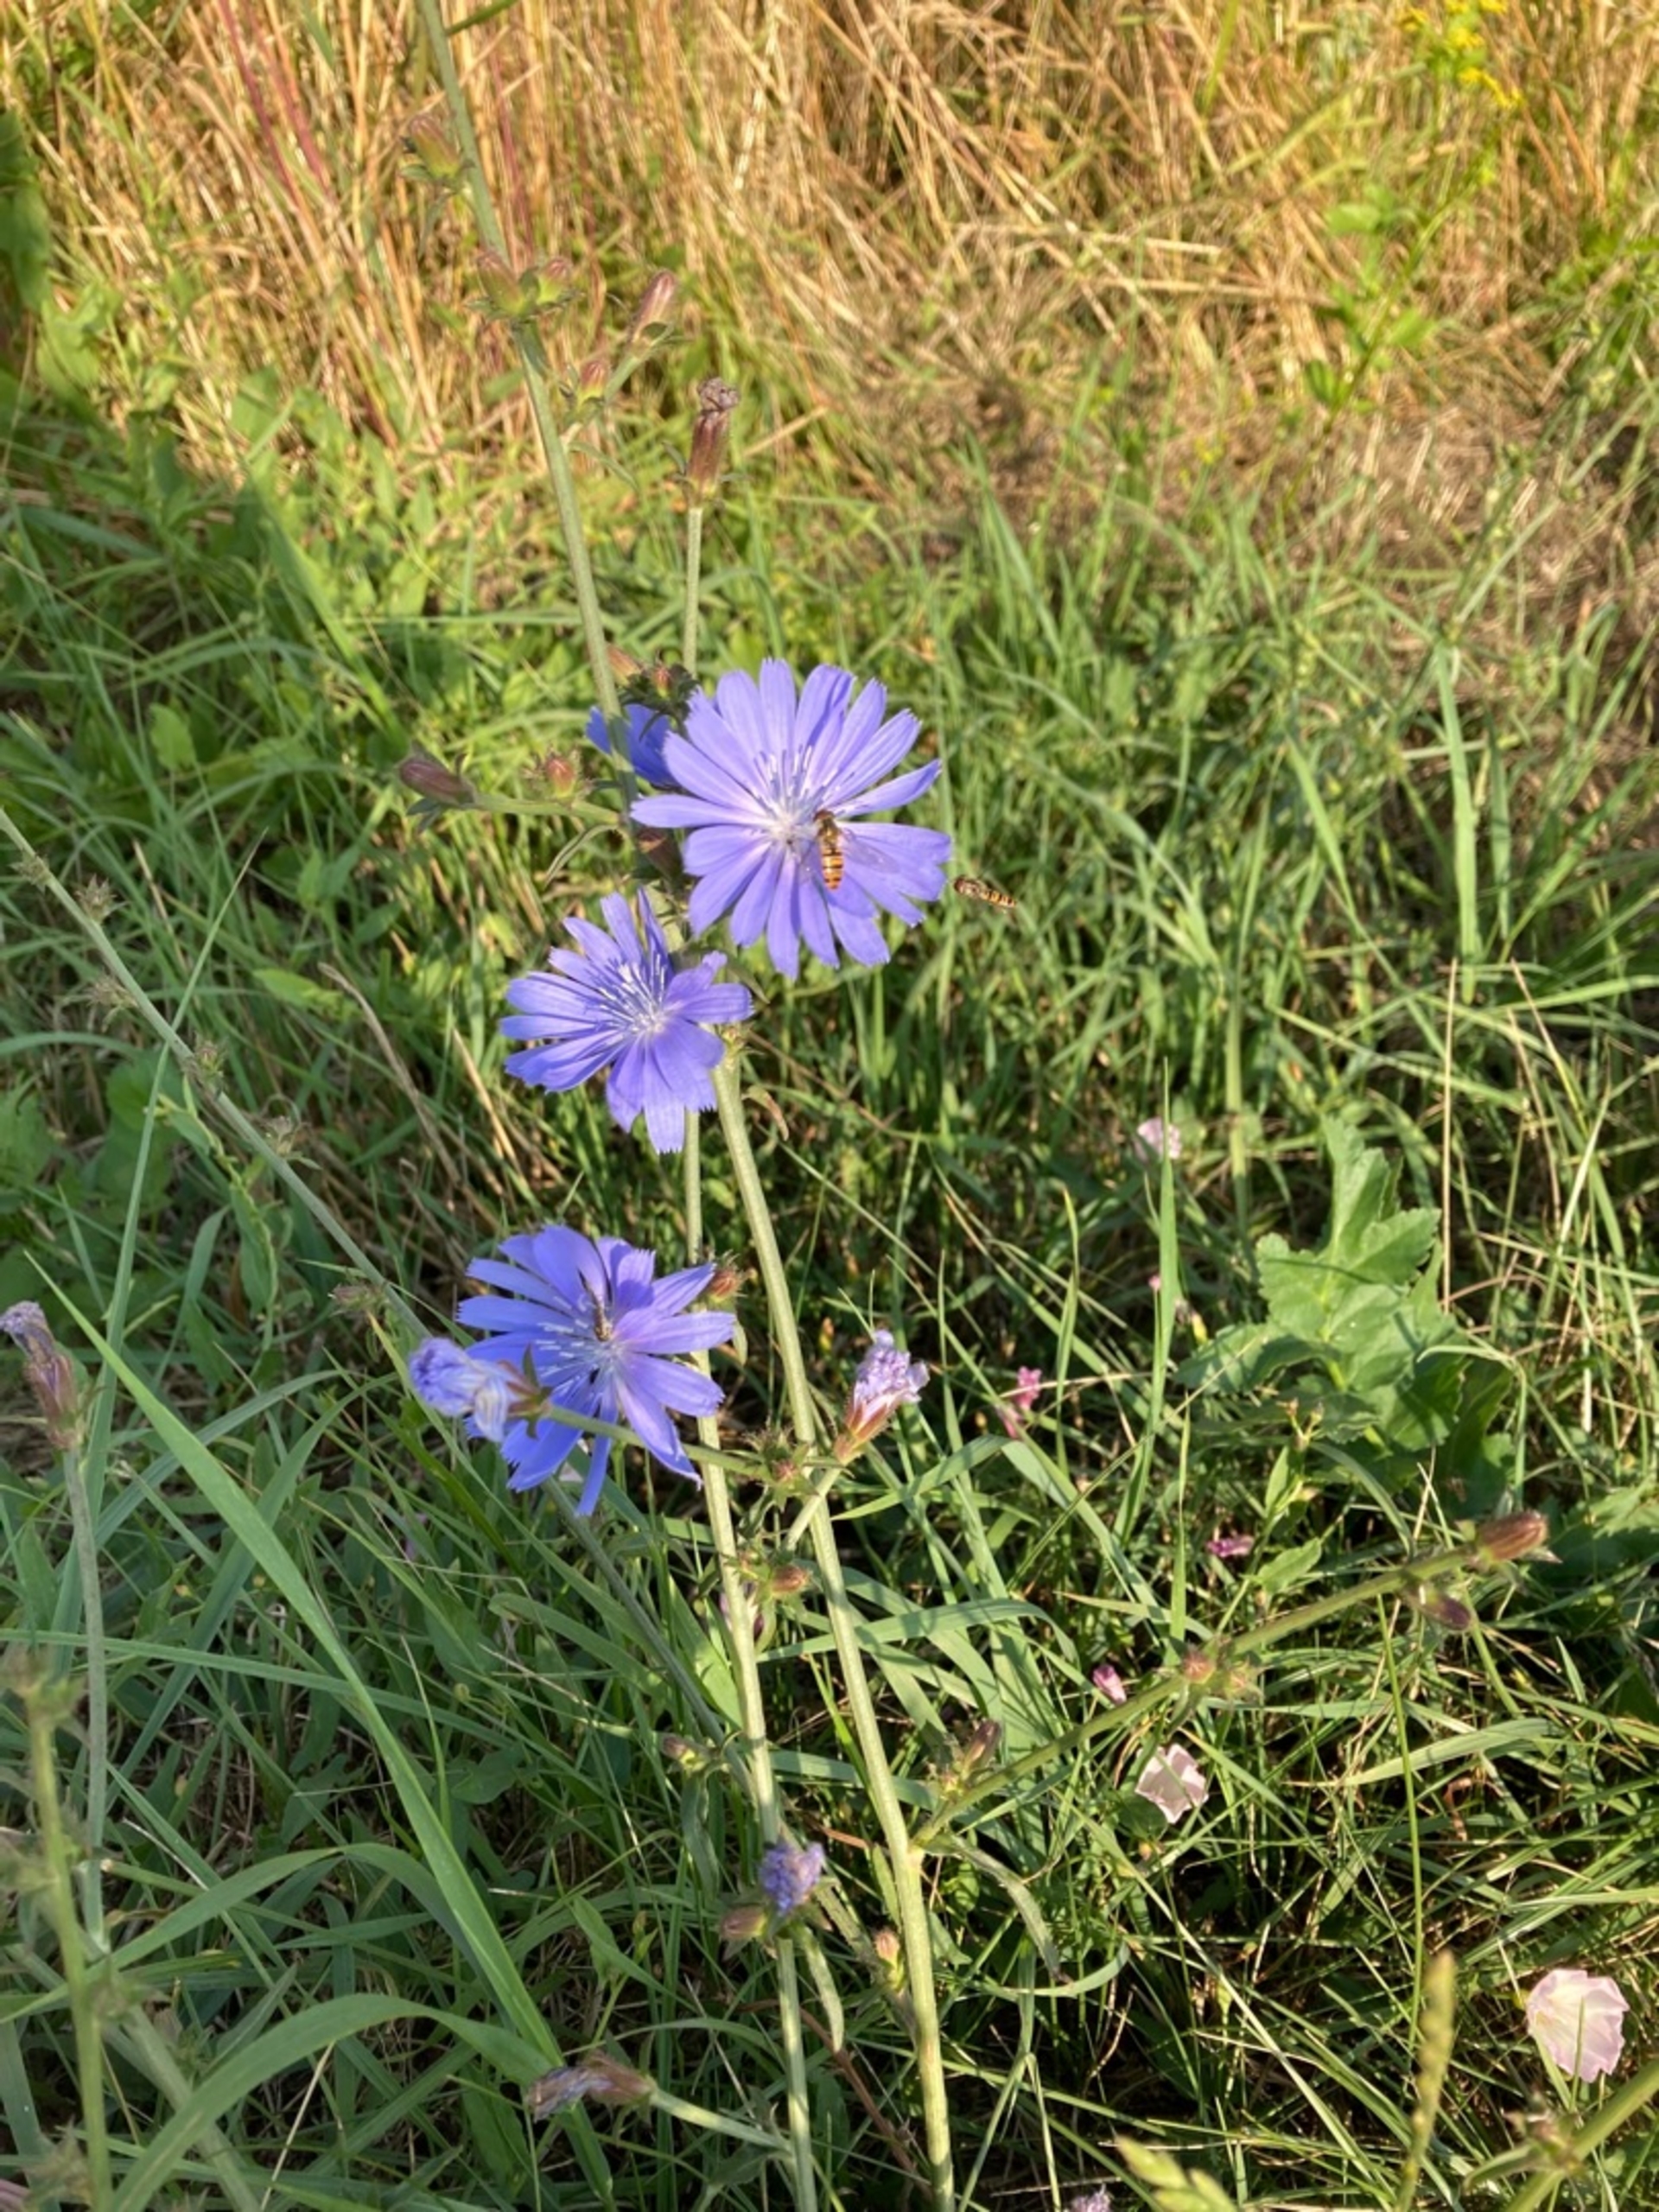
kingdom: Plantae
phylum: Tracheophyta
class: Magnoliopsida
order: Asterales
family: Asteraceae
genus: Cichorium
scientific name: Cichorium intybus
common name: Cikorie (varietet)
